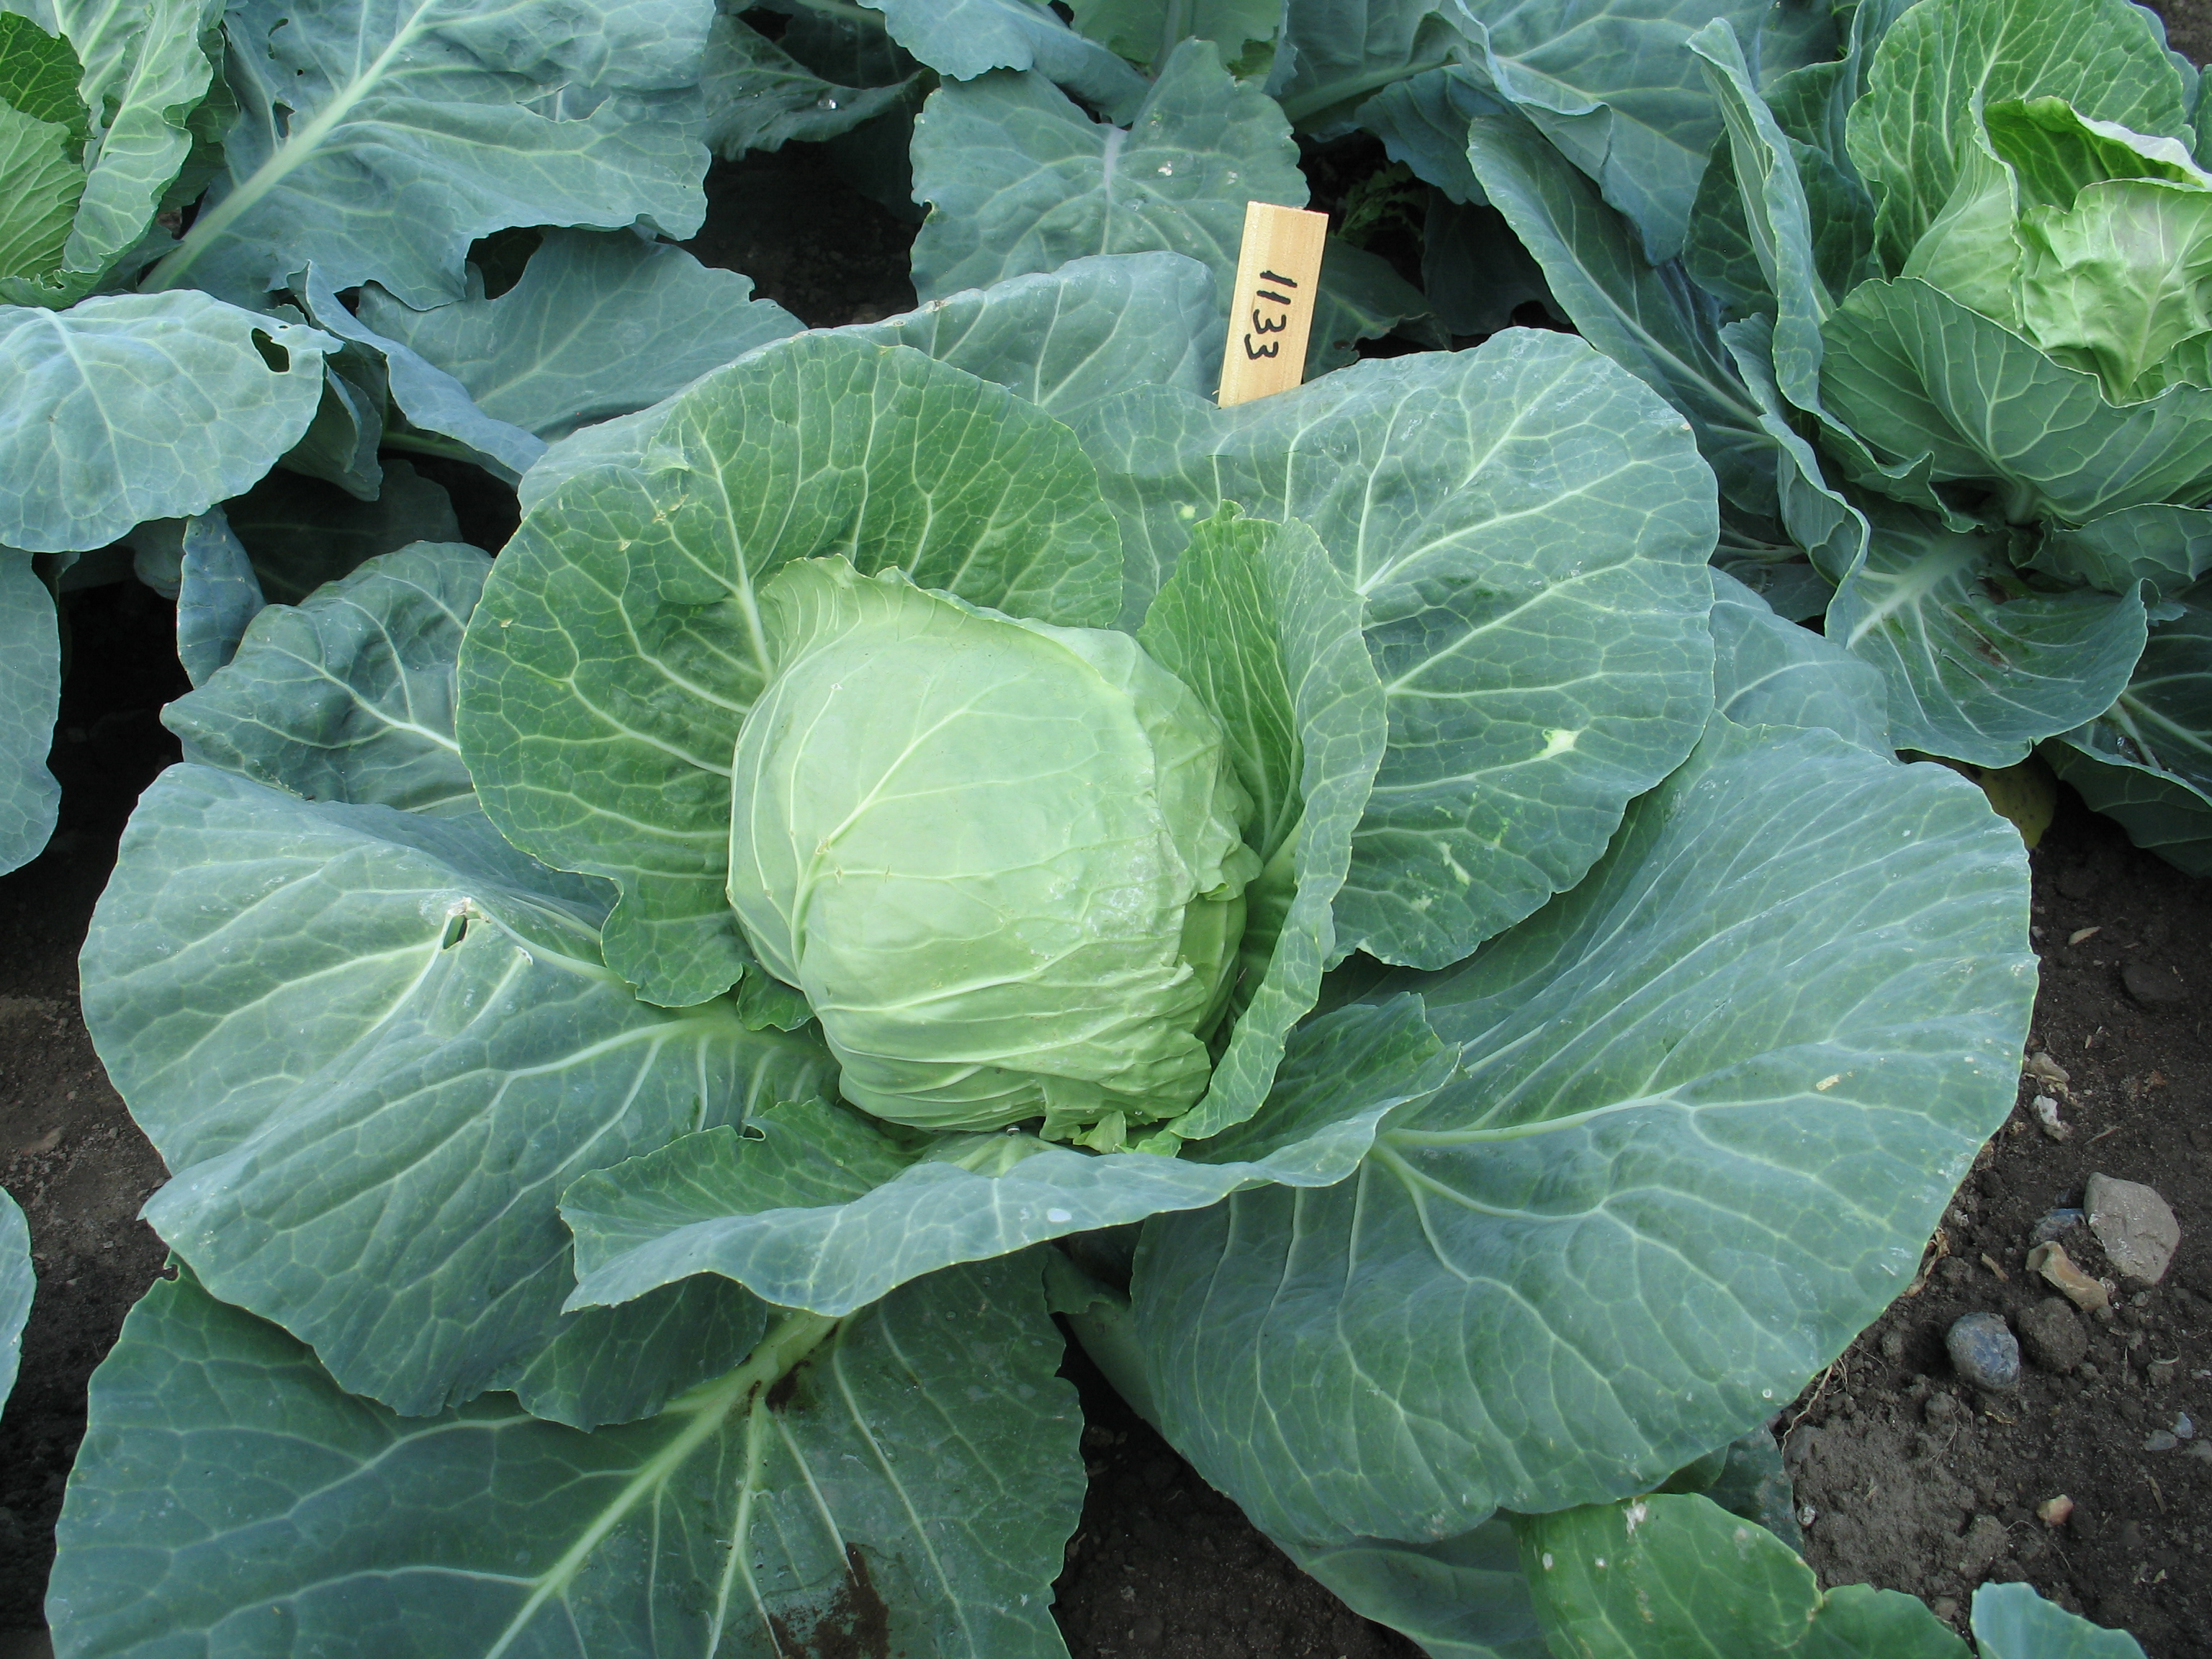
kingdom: Plantae
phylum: Tracheophyta
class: Magnoliopsida
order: Brassicales
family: Brassicaceae
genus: Brassica
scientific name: Brassica oleracea
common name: Cabbage
